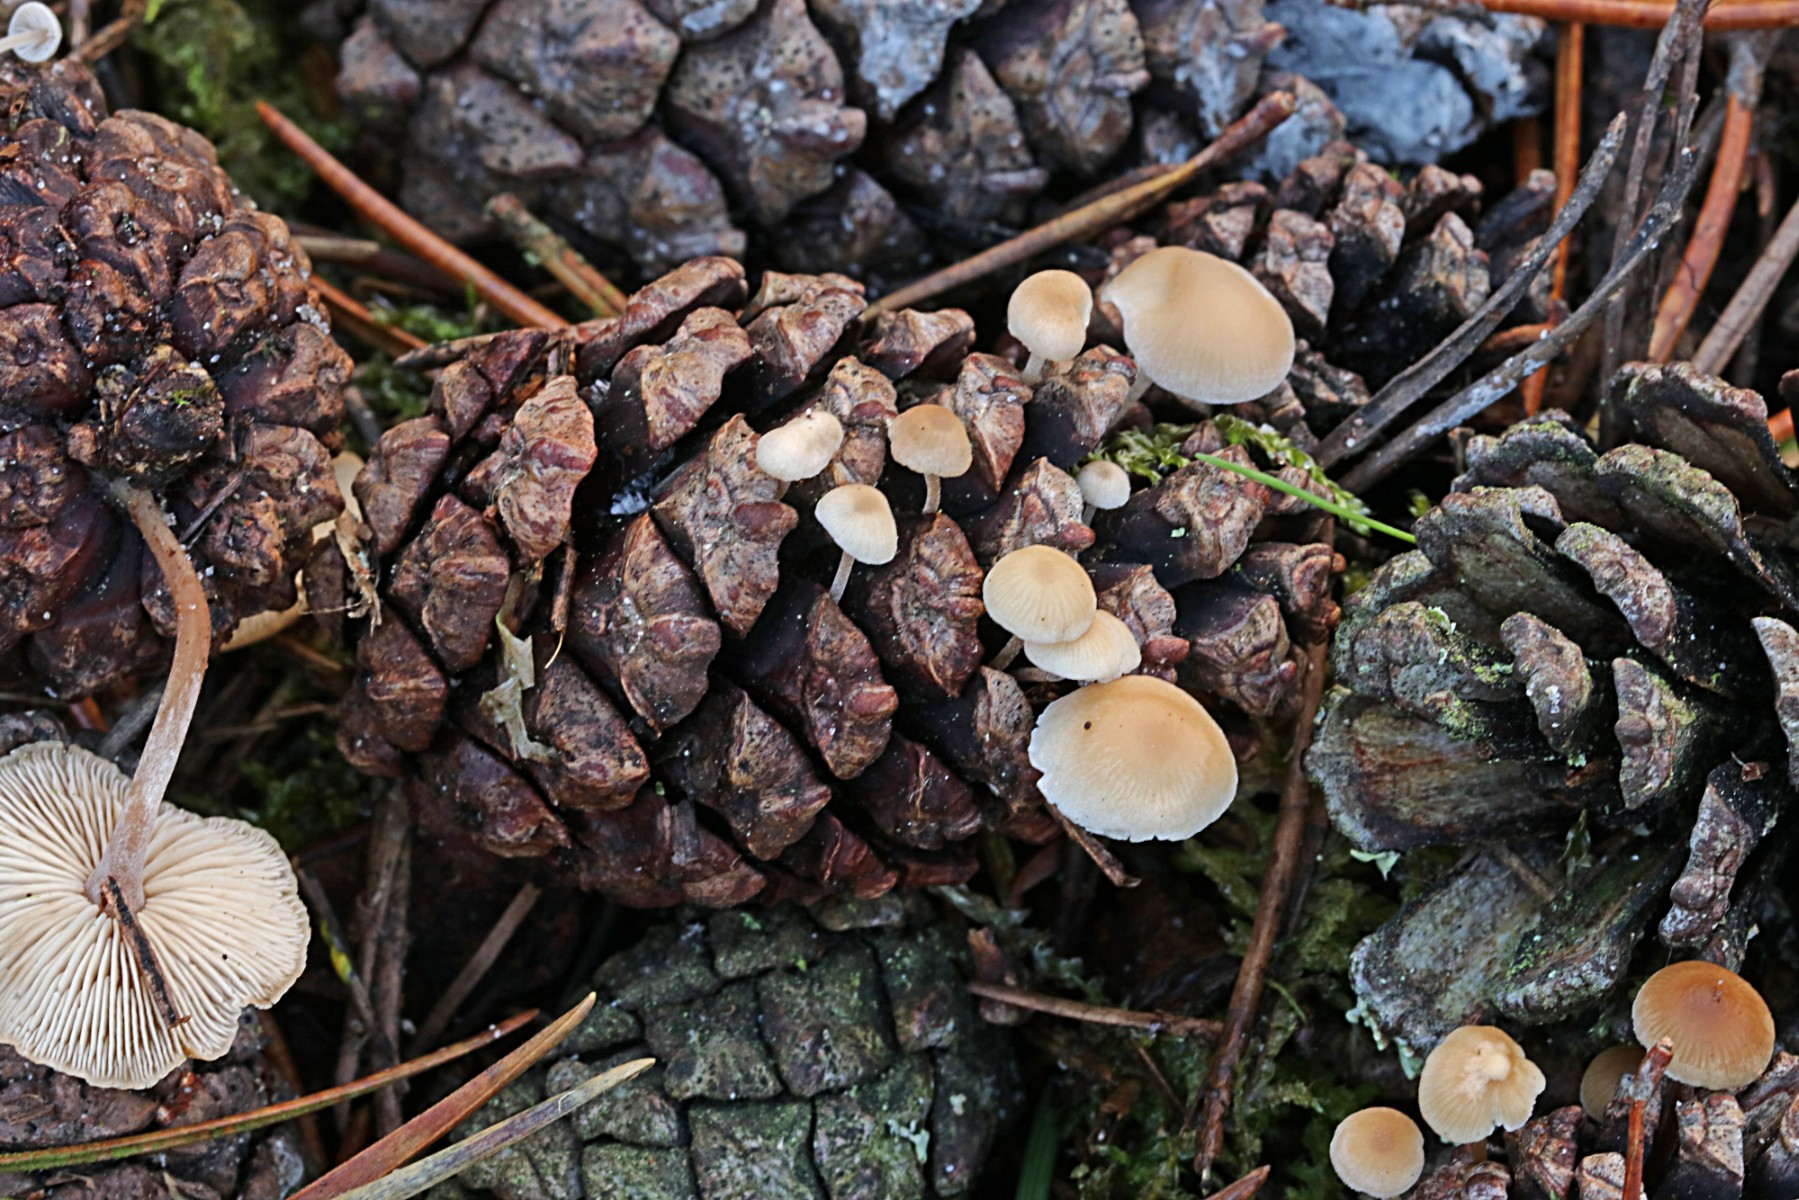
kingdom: Fungi
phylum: Basidiomycota
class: Agaricomycetes
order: Agaricales
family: Marasmiaceae
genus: Baeospora
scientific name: Baeospora myosura
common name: koglebruskhat
